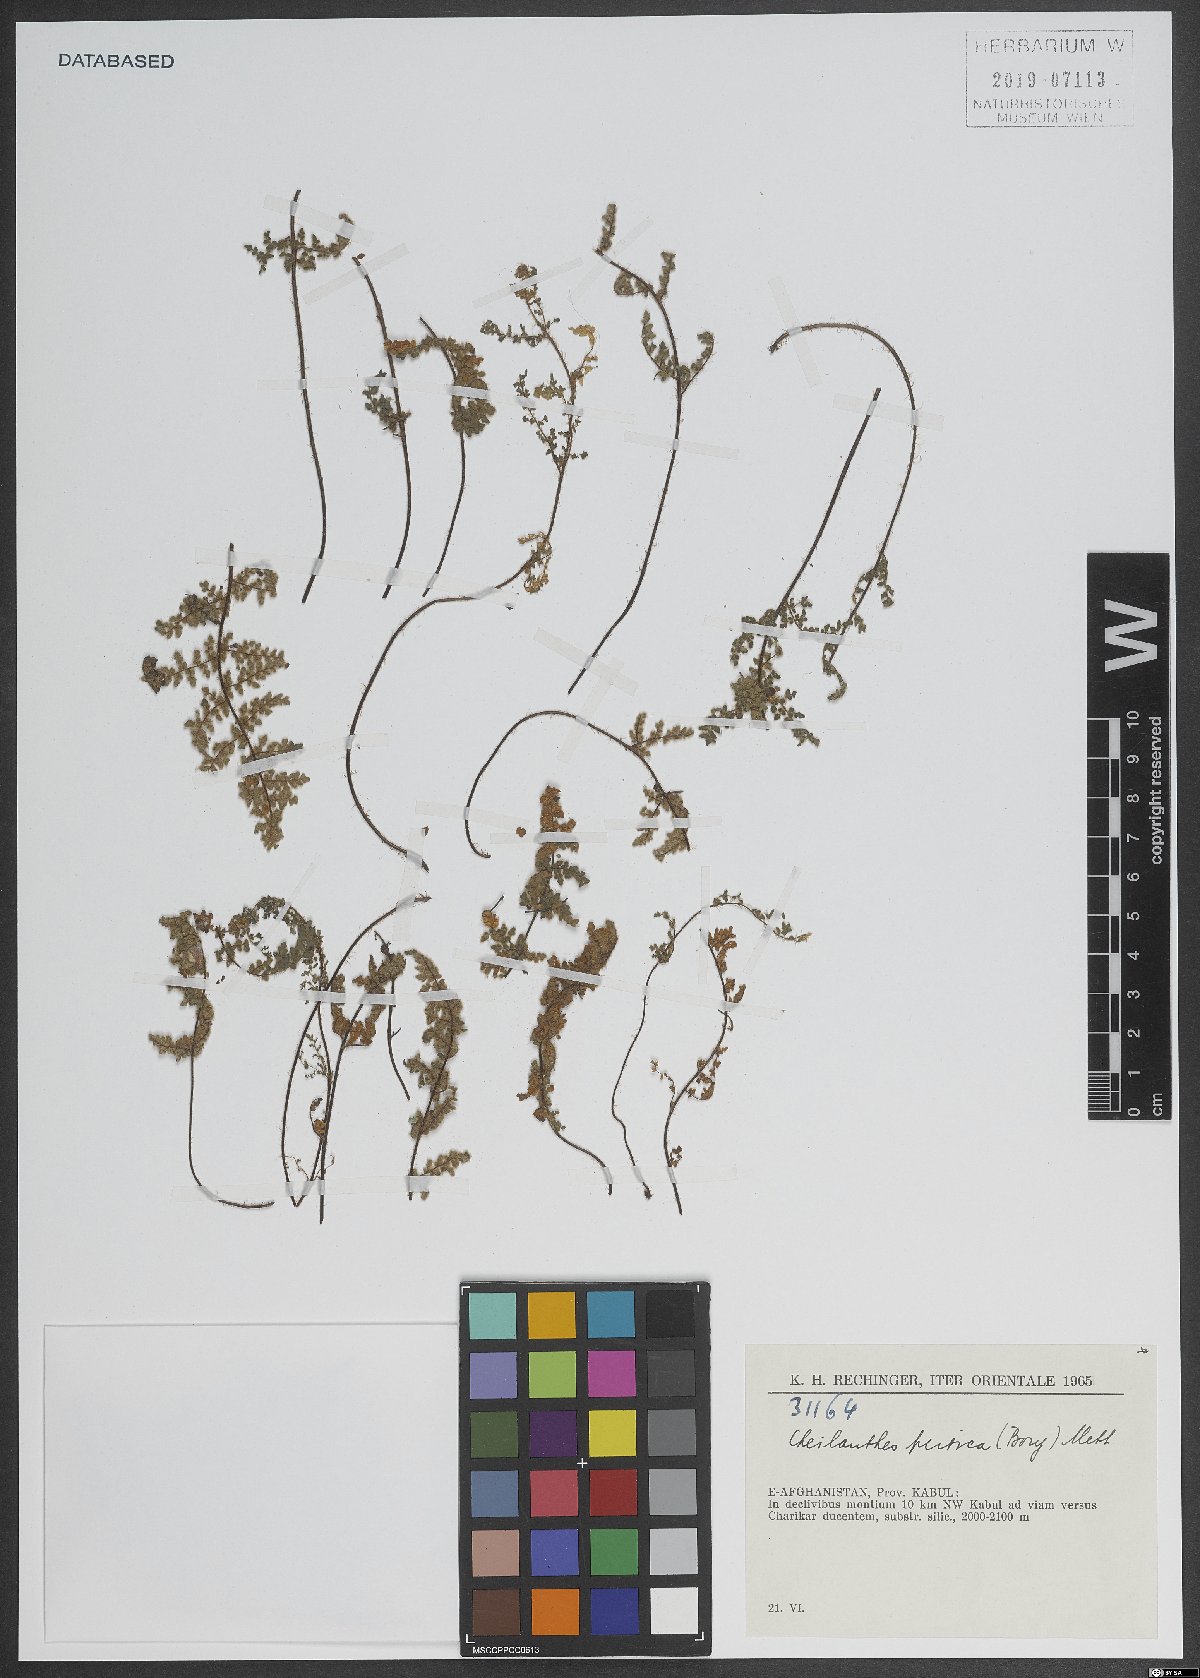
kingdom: Plantae
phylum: Tracheophyta
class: Polypodiopsida
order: Polypodiales
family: Pteridaceae
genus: Cheilanthes
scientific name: Cheilanthes persica
